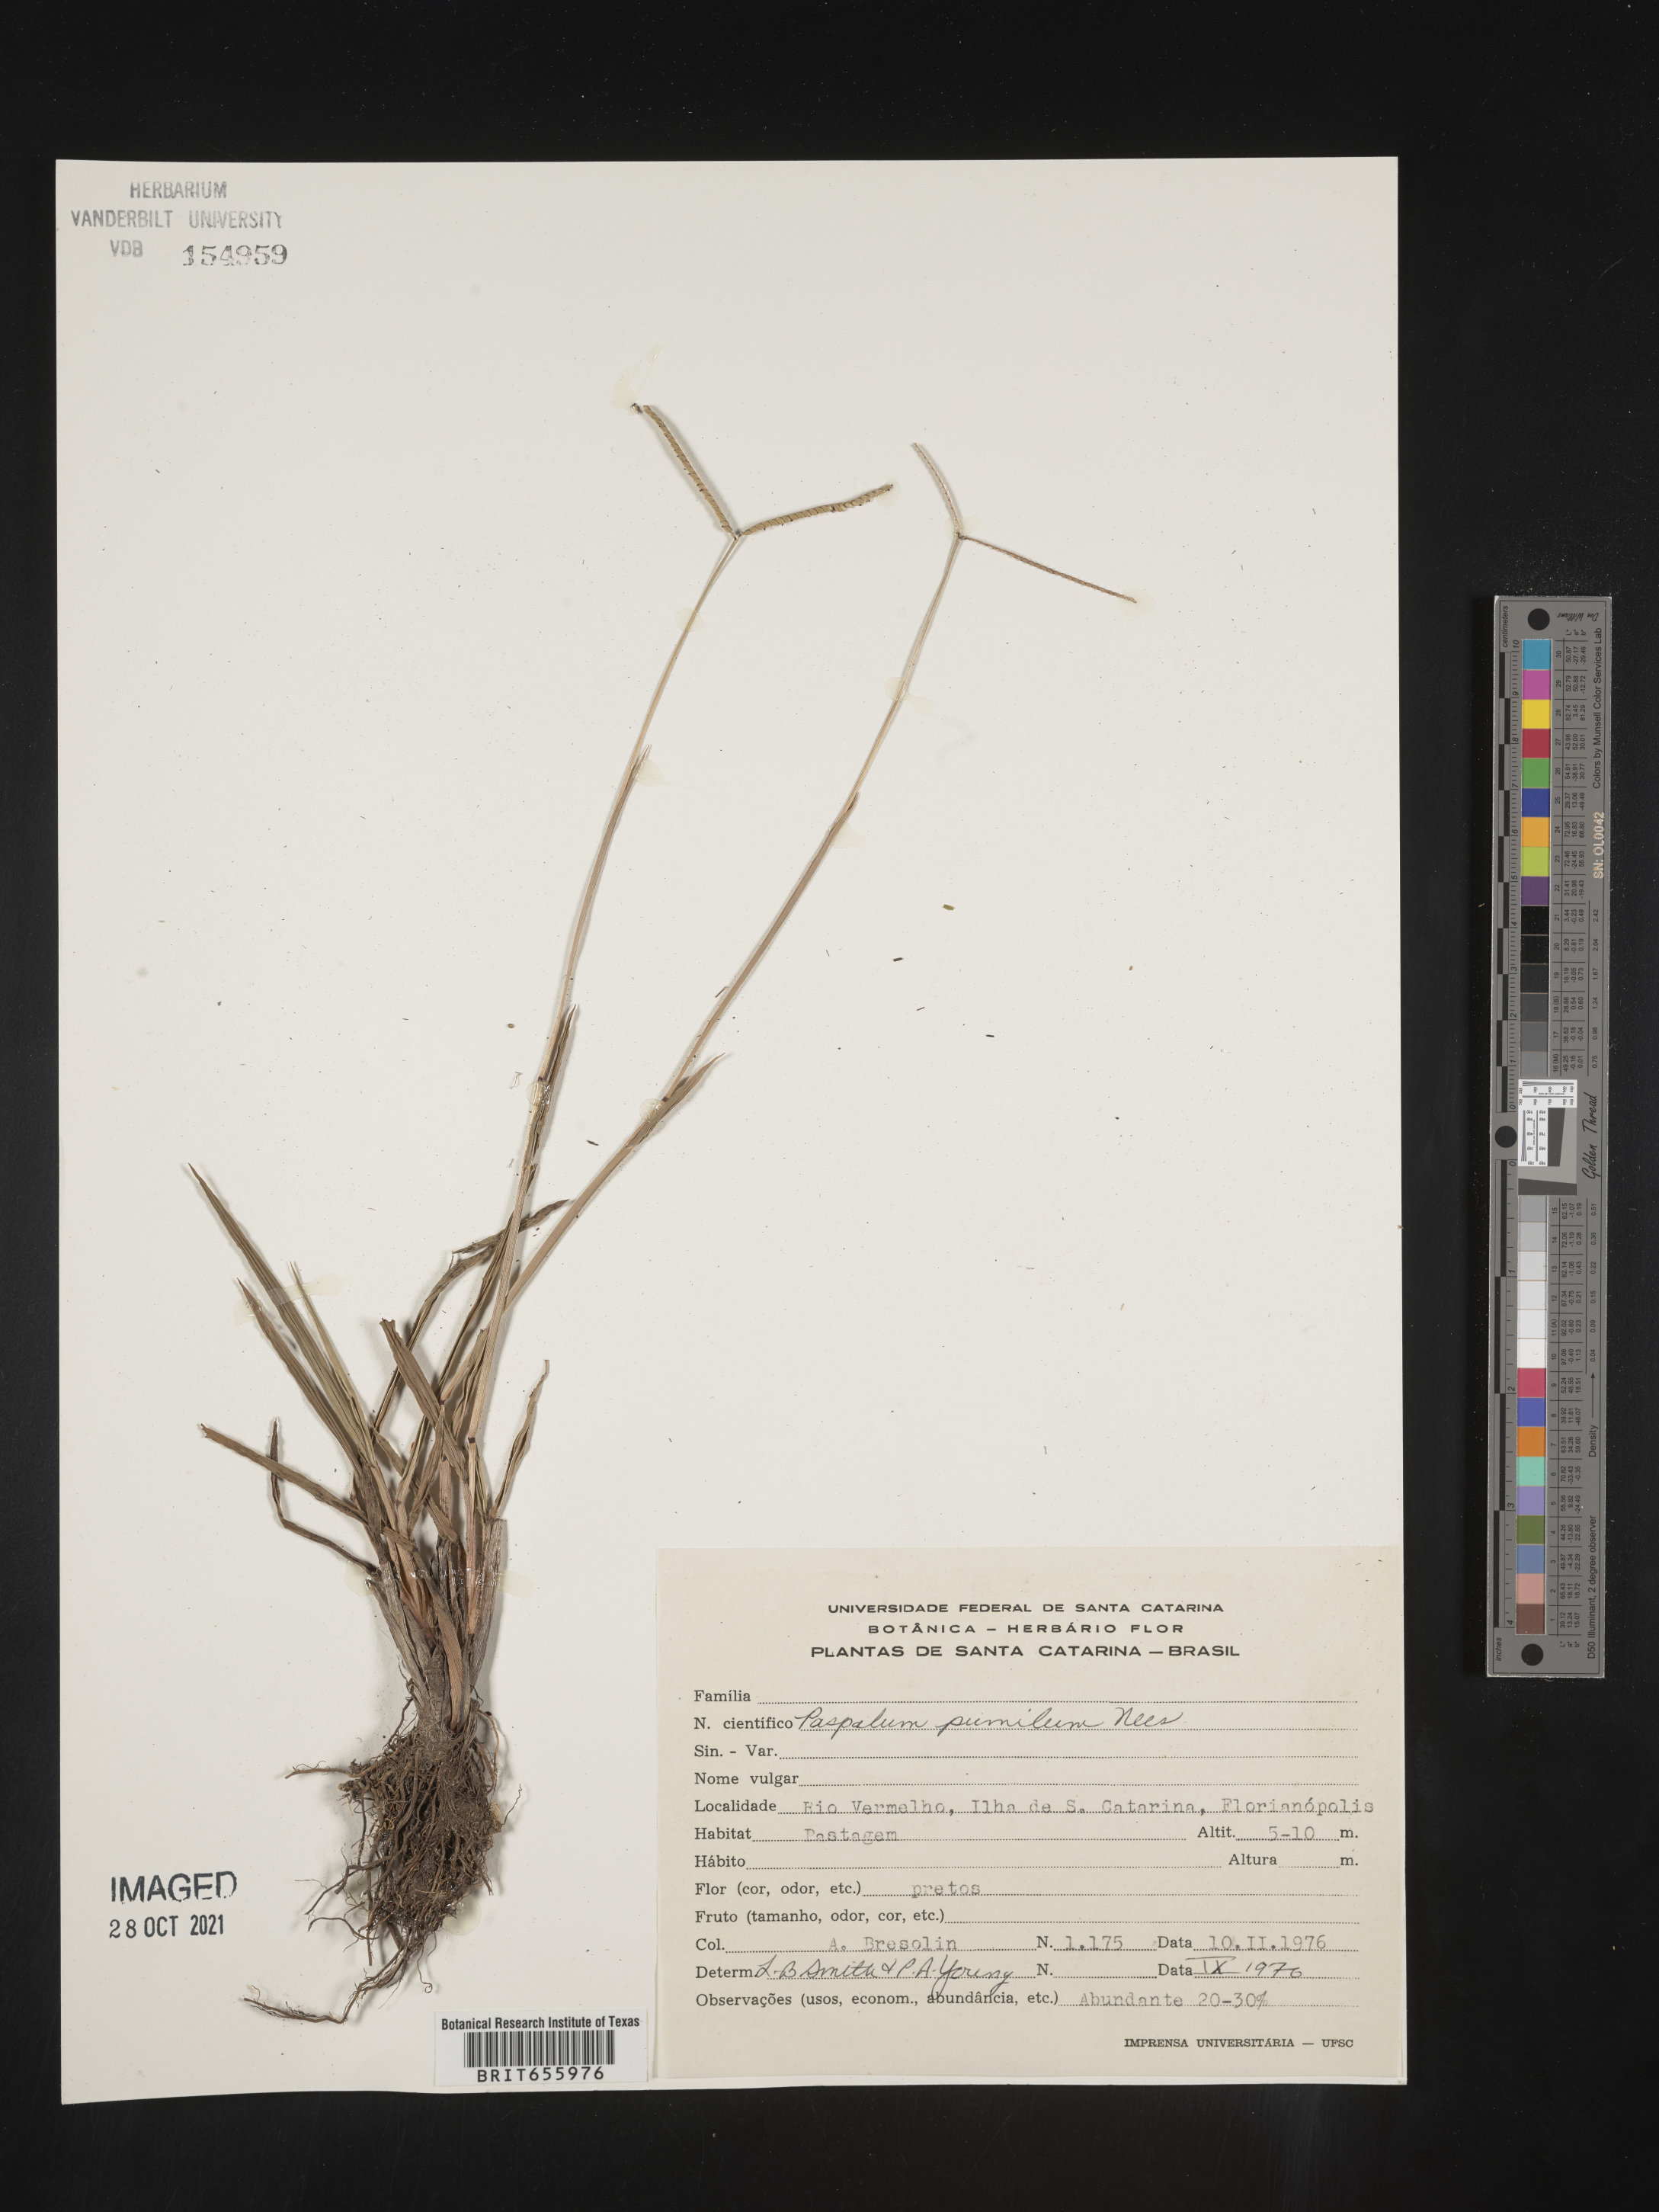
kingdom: Plantae
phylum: Tracheophyta
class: Liliopsida
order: Poales
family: Poaceae
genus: Paspalum
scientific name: Paspalum
